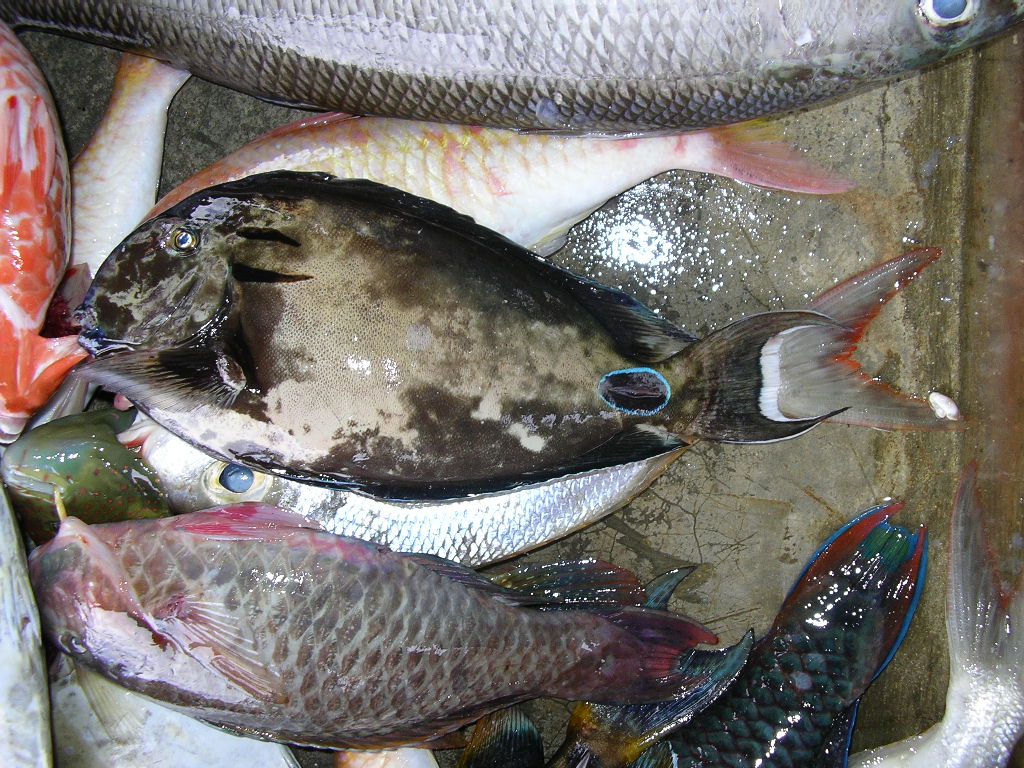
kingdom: Animalia
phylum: Chordata
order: Perciformes
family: Acanthuridae
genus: Acanthurus
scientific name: Acanthurus tennentii
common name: Doubleband surgeonfish
